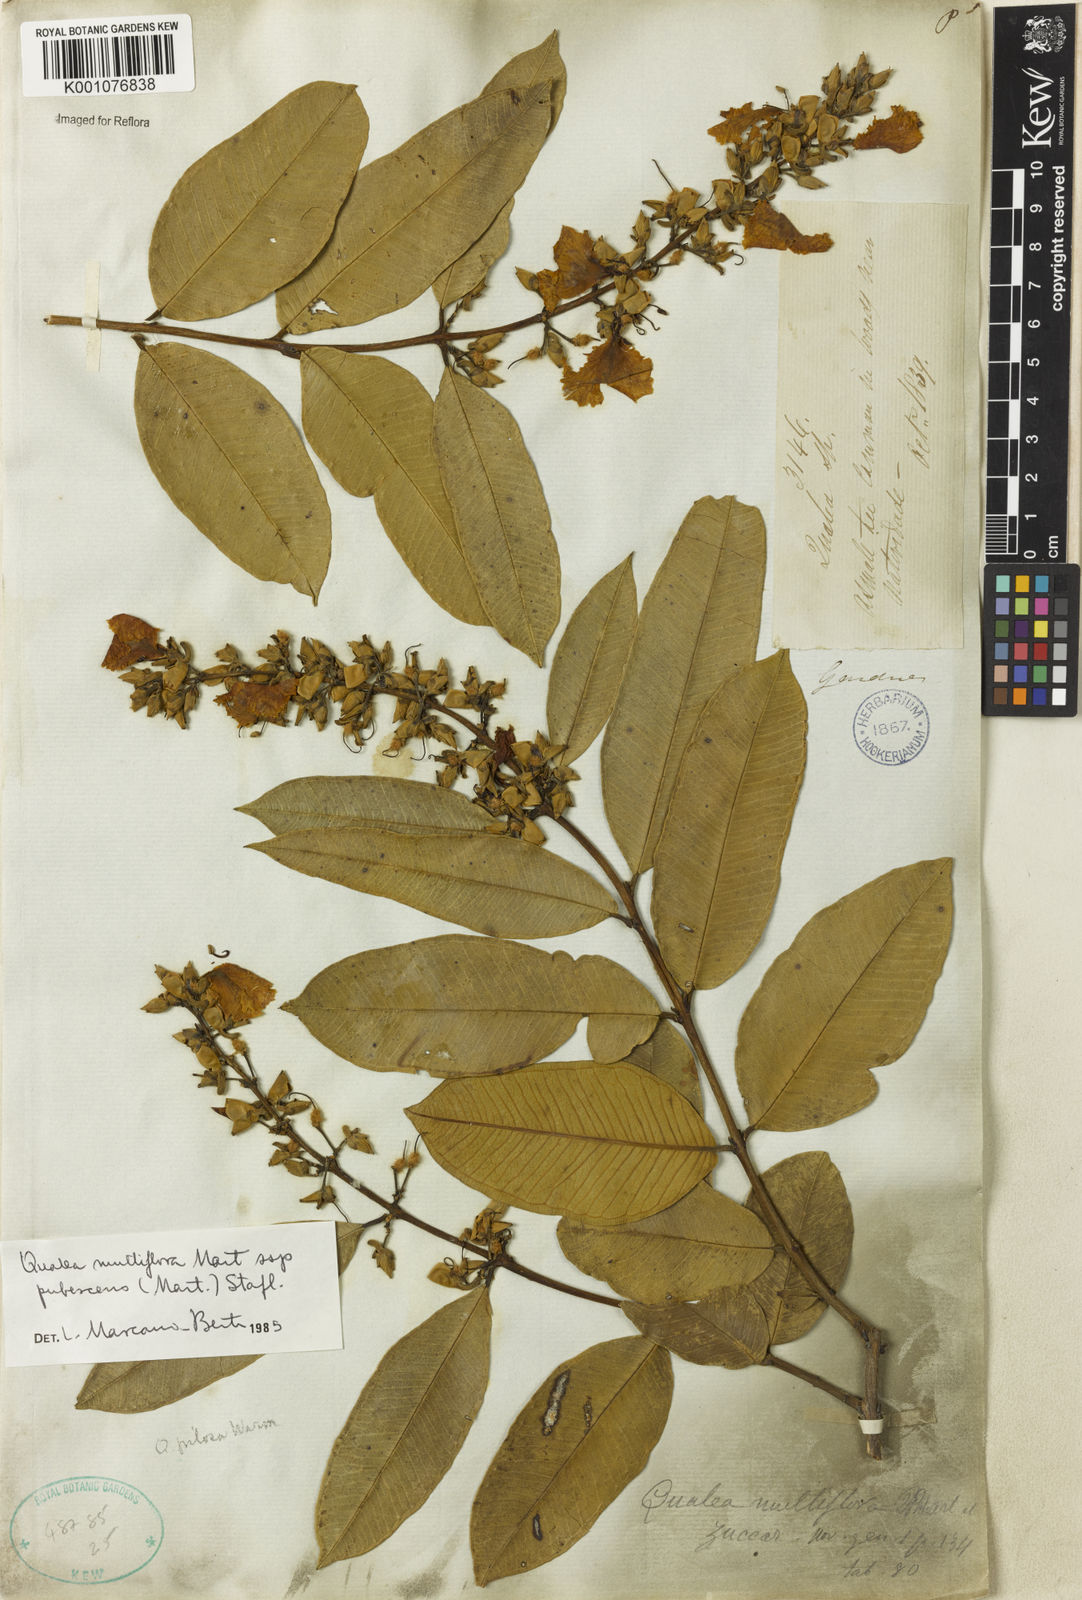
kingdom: Plantae
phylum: Tracheophyta
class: Magnoliopsida
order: Myrtales
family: Vochysiaceae
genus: Qualea
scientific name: Qualea multiflora
